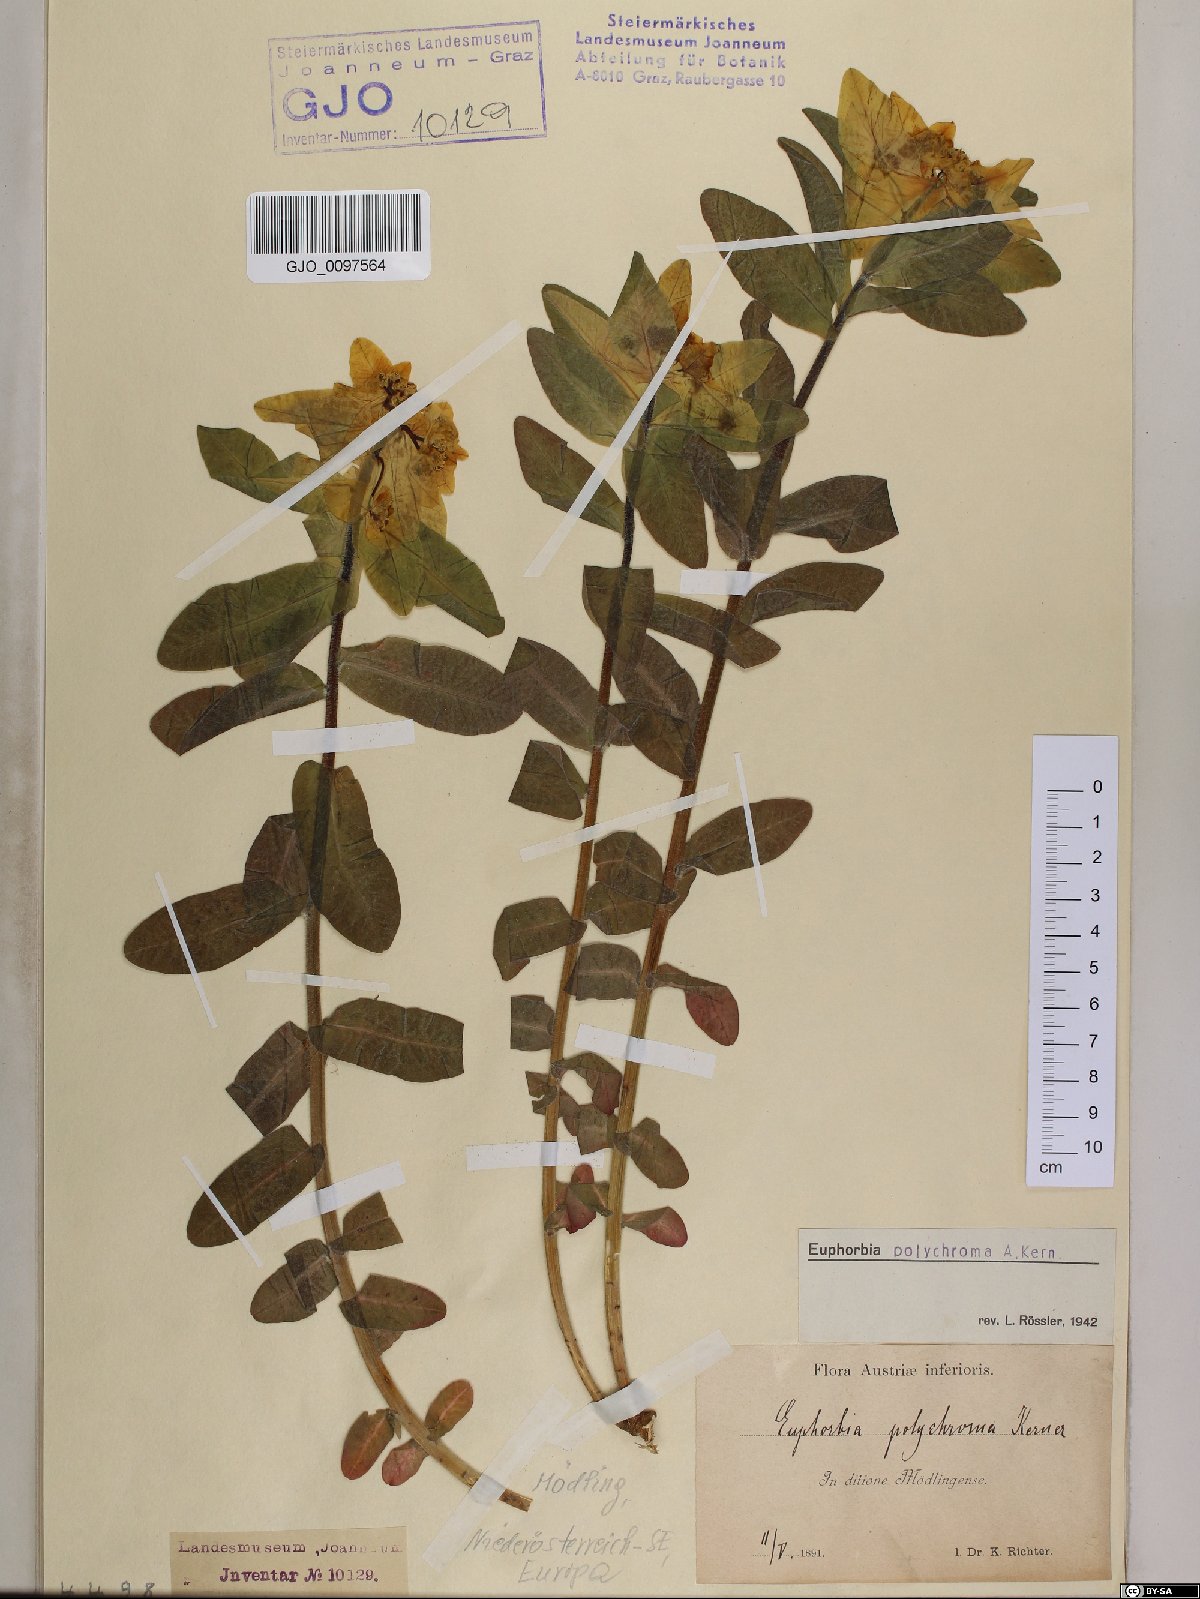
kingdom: Plantae
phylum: Tracheophyta
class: Magnoliopsida
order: Malpighiales
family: Euphorbiaceae
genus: Euphorbia
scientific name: Euphorbia epithymoides
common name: Cushion spurge
